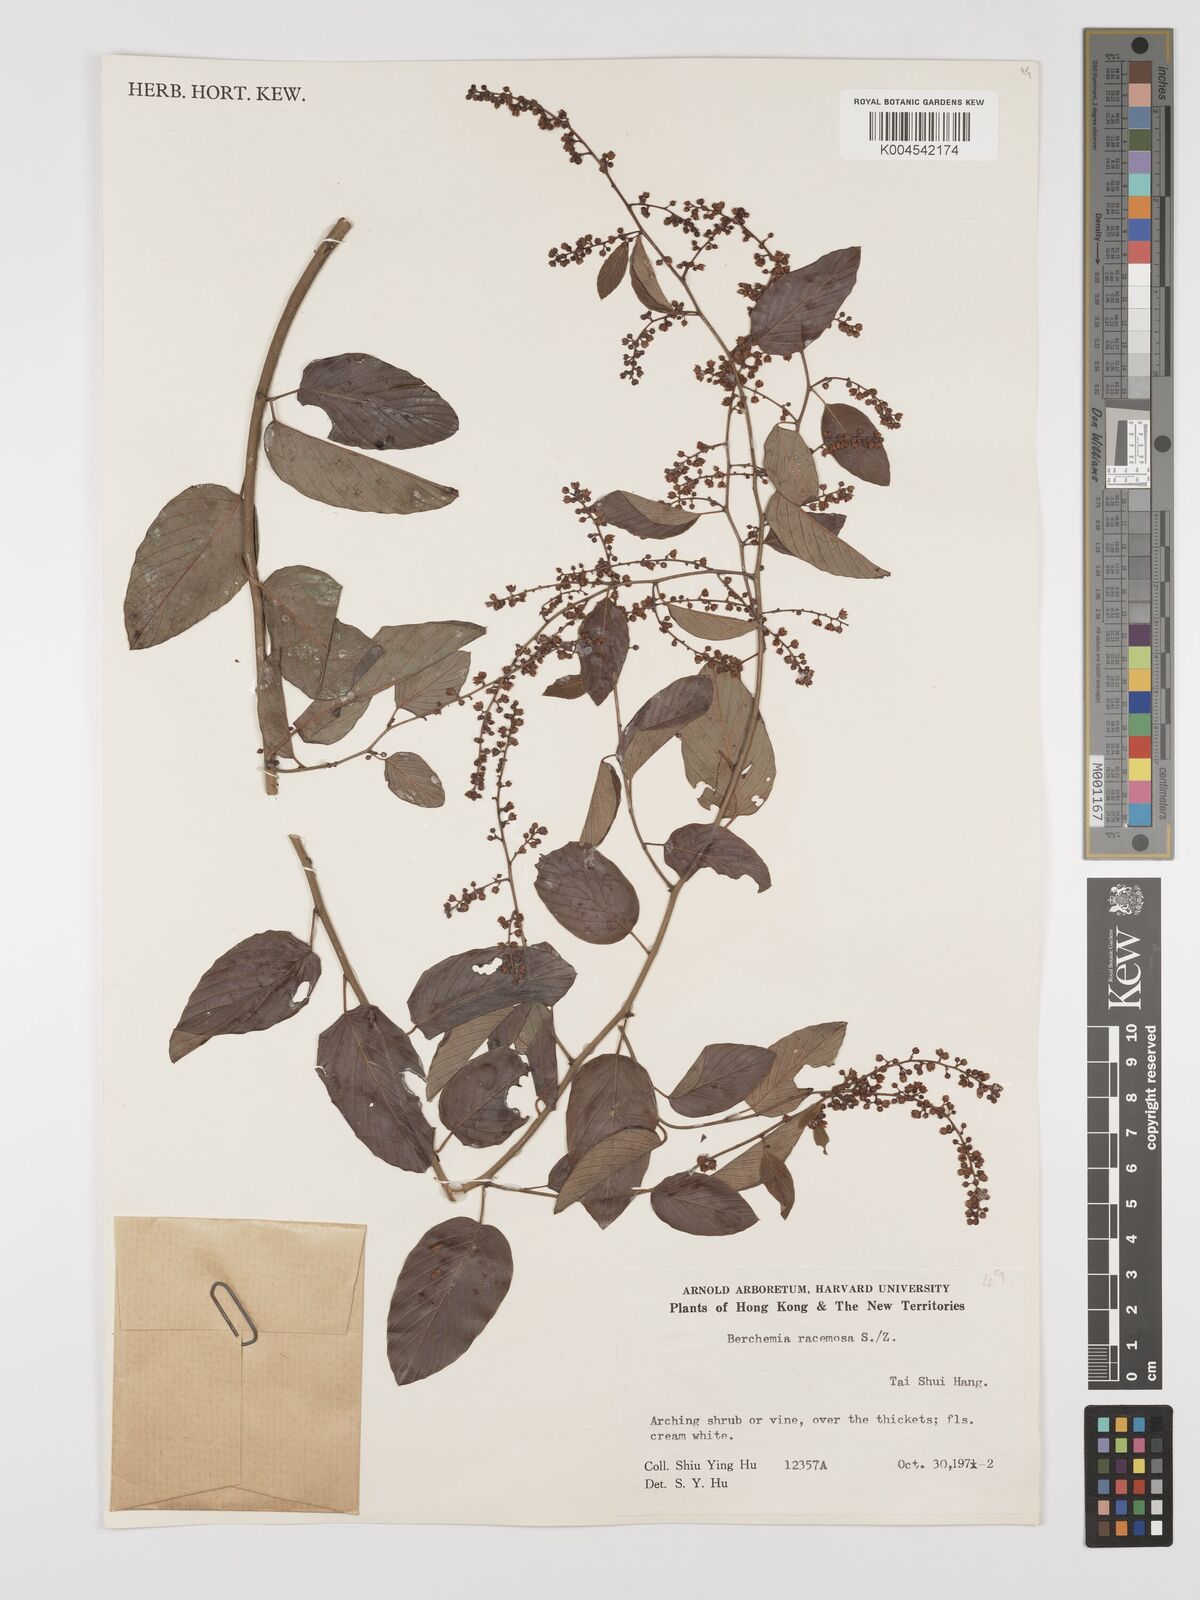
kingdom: Plantae
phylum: Tracheophyta
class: Magnoliopsida
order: Rosales
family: Rhamnaceae
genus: Berchemia
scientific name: Berchemia floribunda
